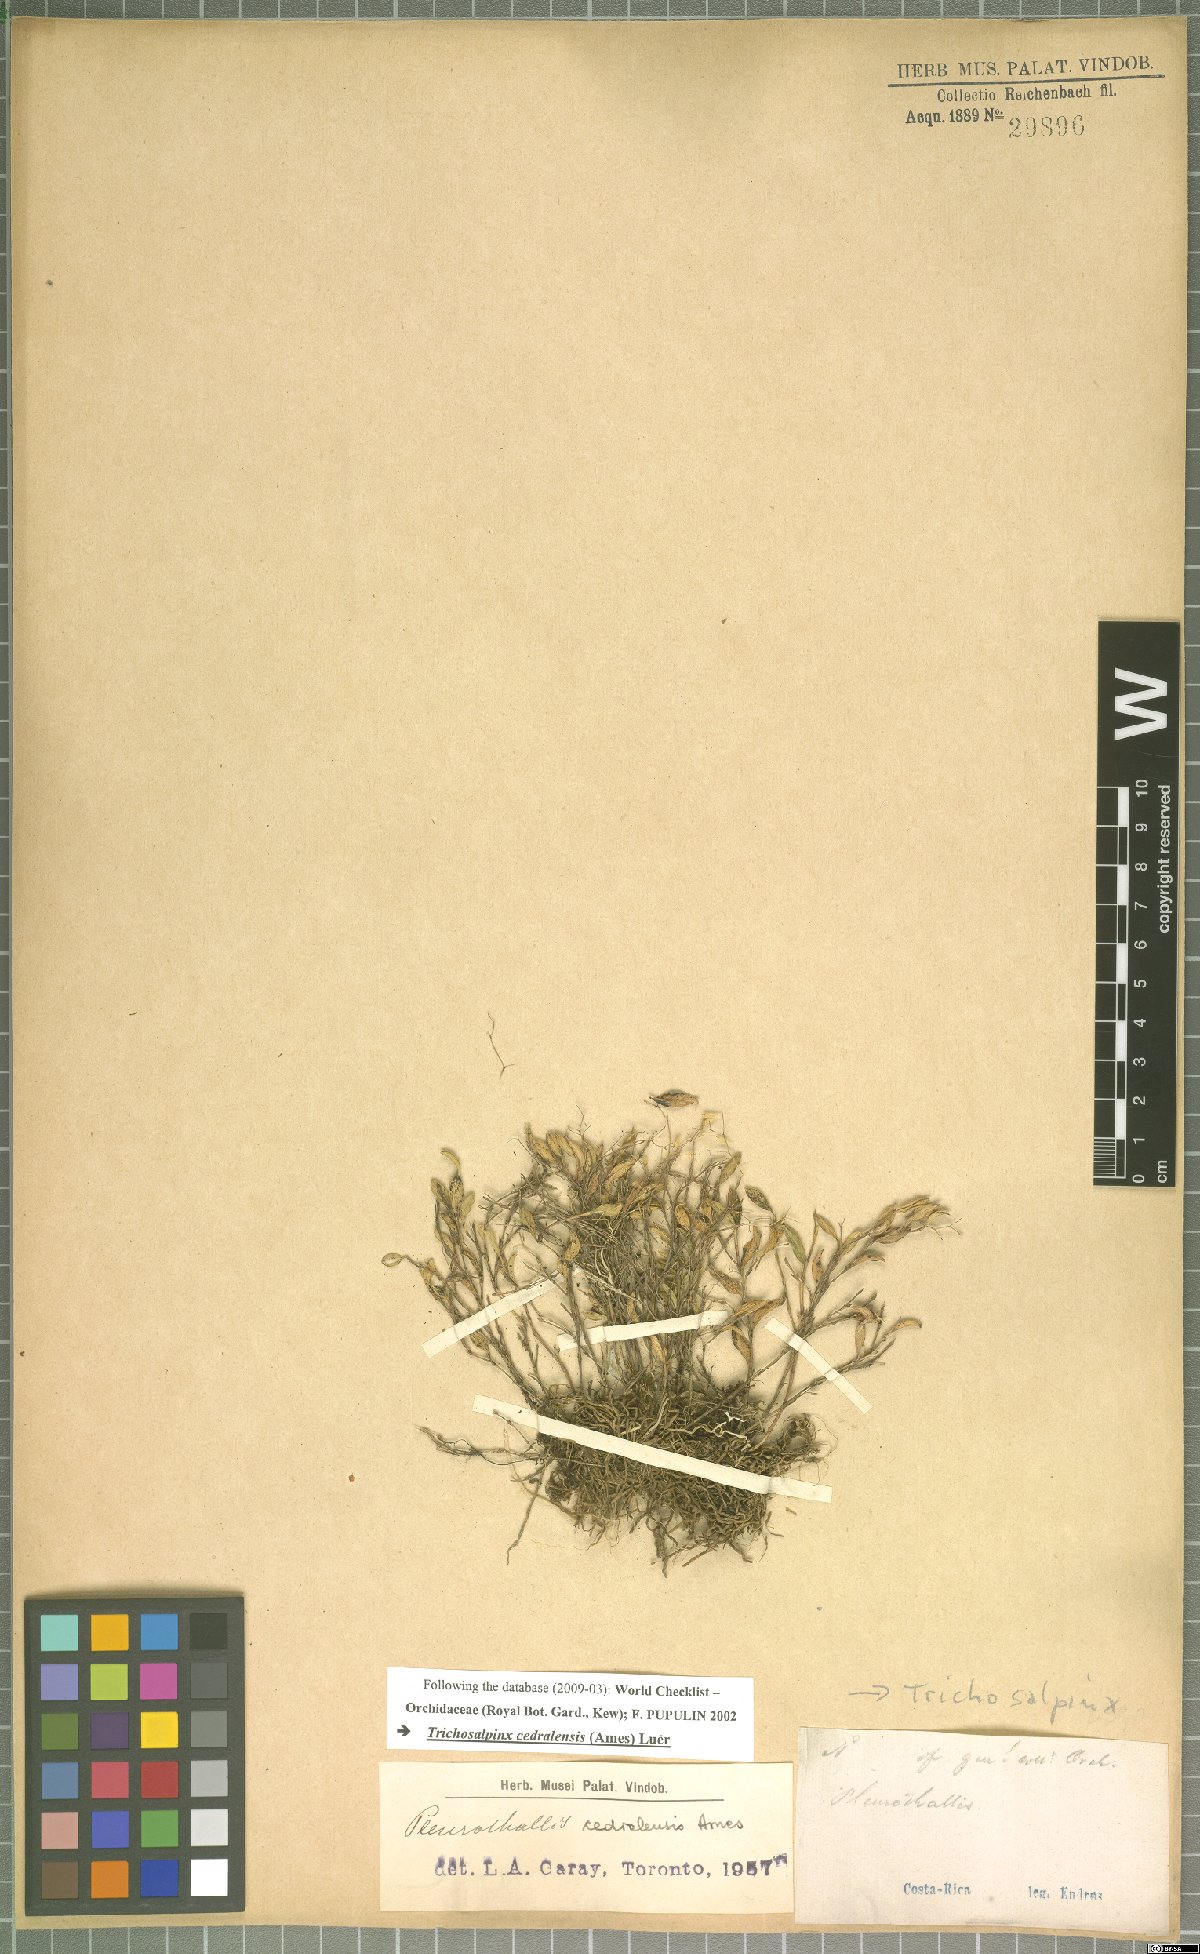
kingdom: Plantae
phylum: Tracheophyta
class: Liliopsida
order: Asparagales
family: Orchidaceae
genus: Trichosalpinx
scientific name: Trichosalpinx cedralensis
